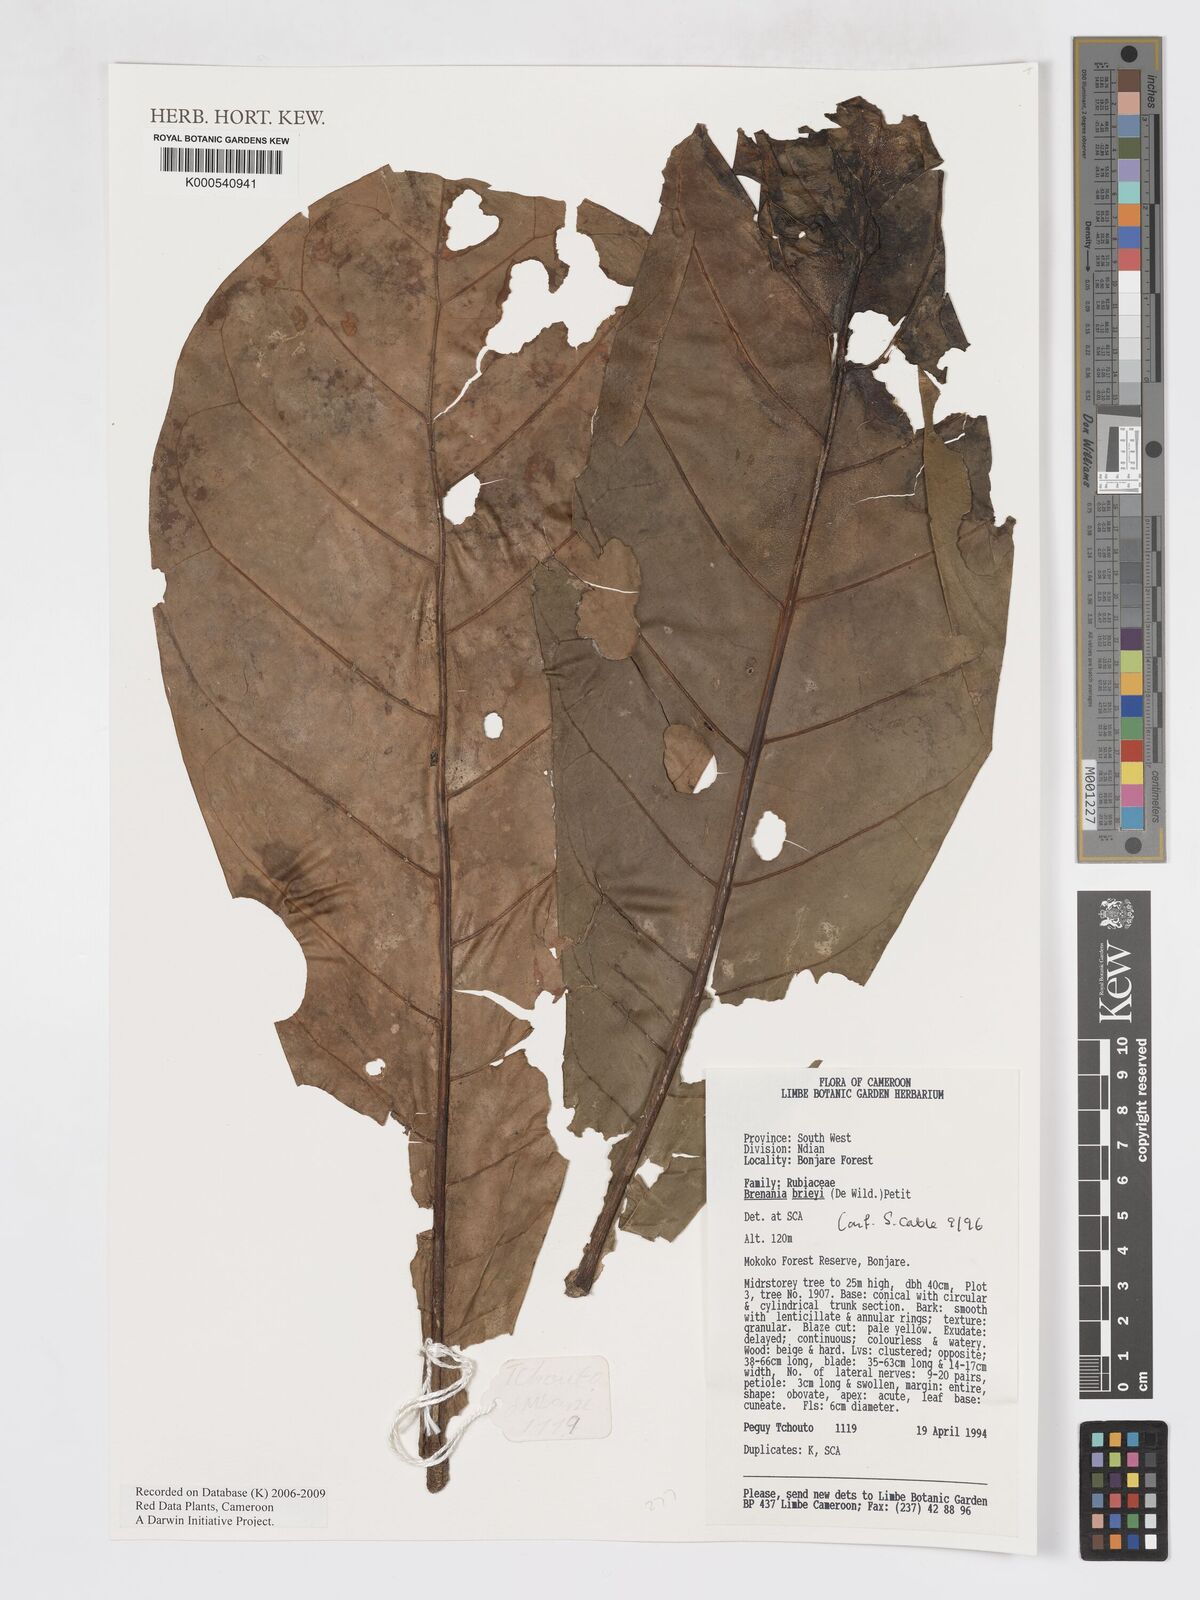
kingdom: Plantae
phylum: Tracheophyta
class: Magnoliopsida
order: Gentianales
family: Rubiaceae
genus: Brenania
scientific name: Brenania brieyi
